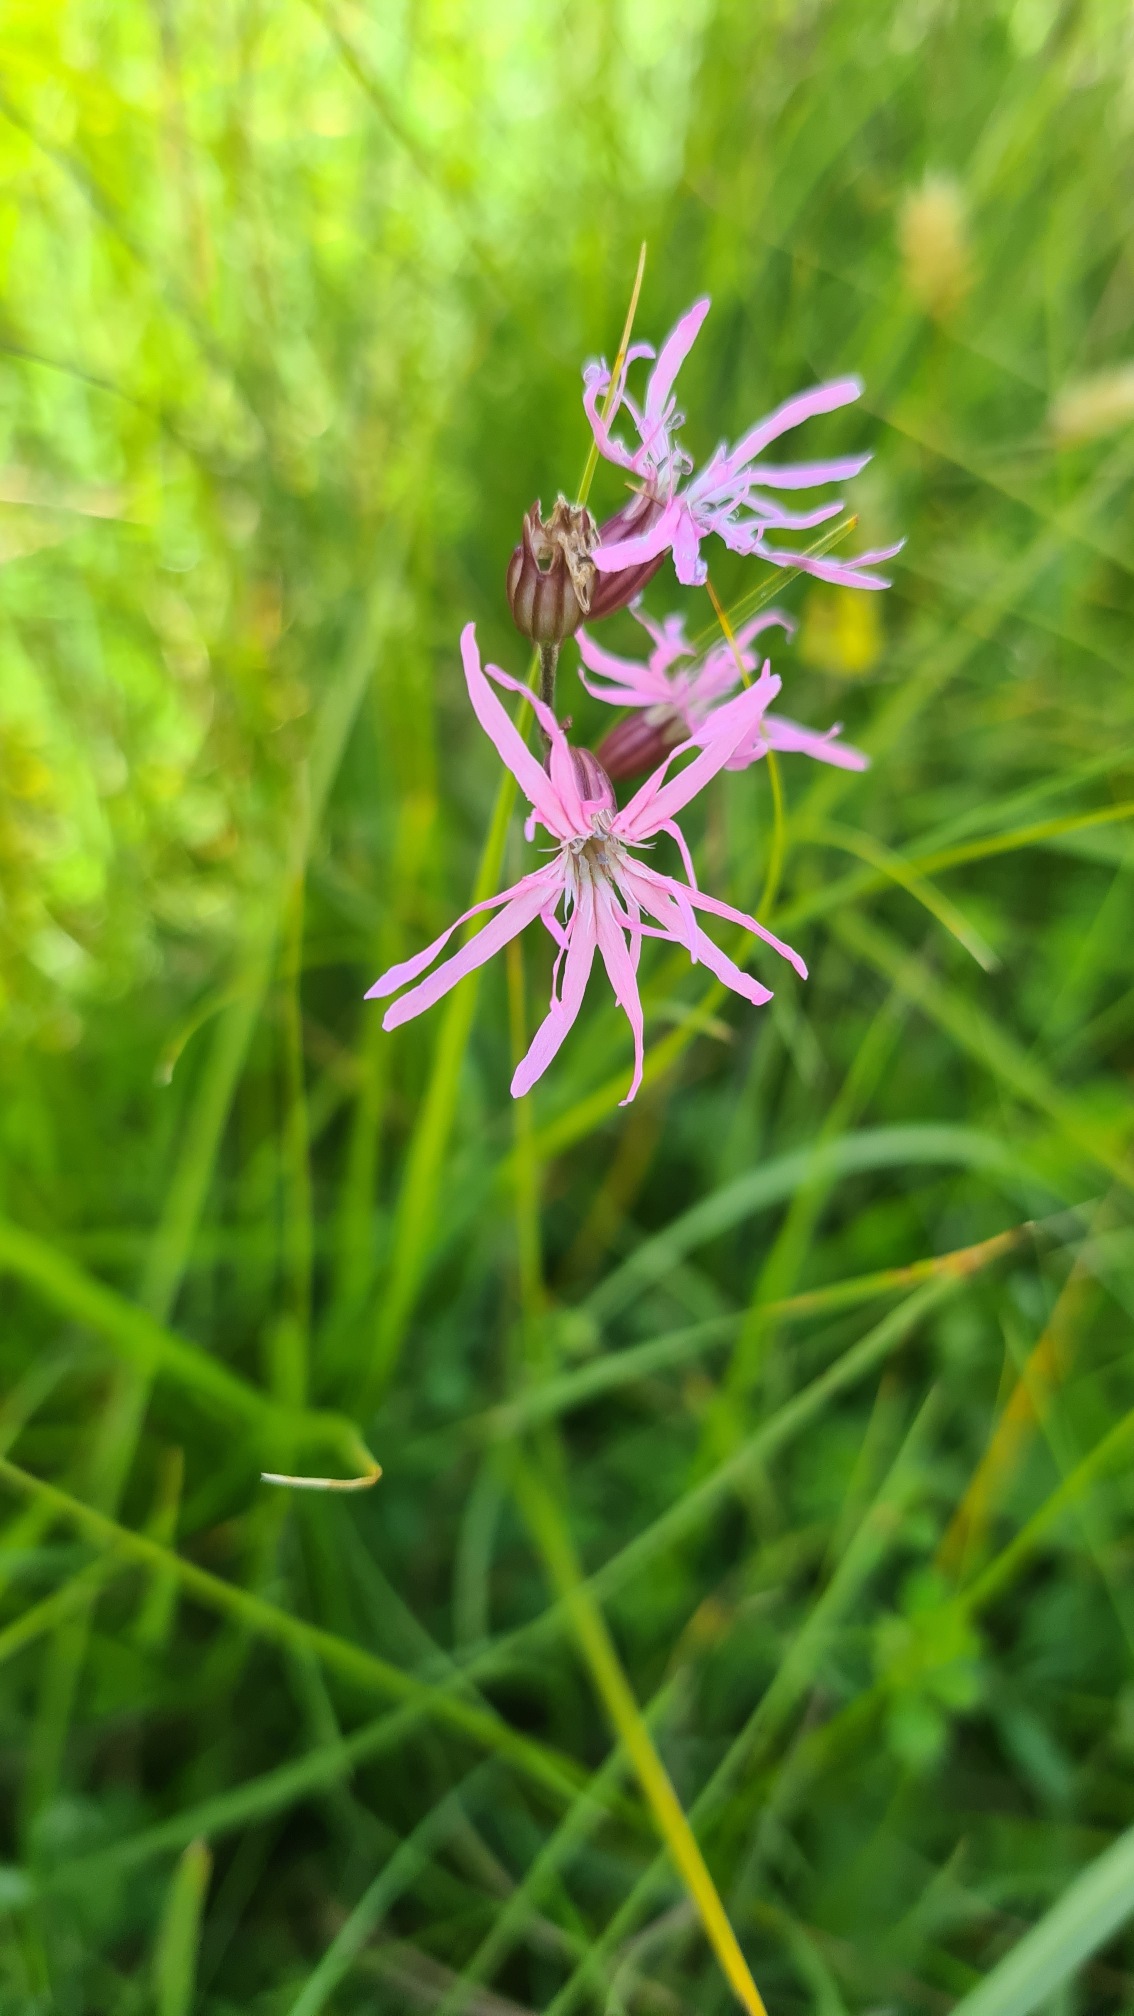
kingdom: Plantae
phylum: Tracheophyta
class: Magnoliopsida
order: Caryophyllales
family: Caryophyllaceae
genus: Silene
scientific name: Silene flos-cuculi
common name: Trævlekrone
